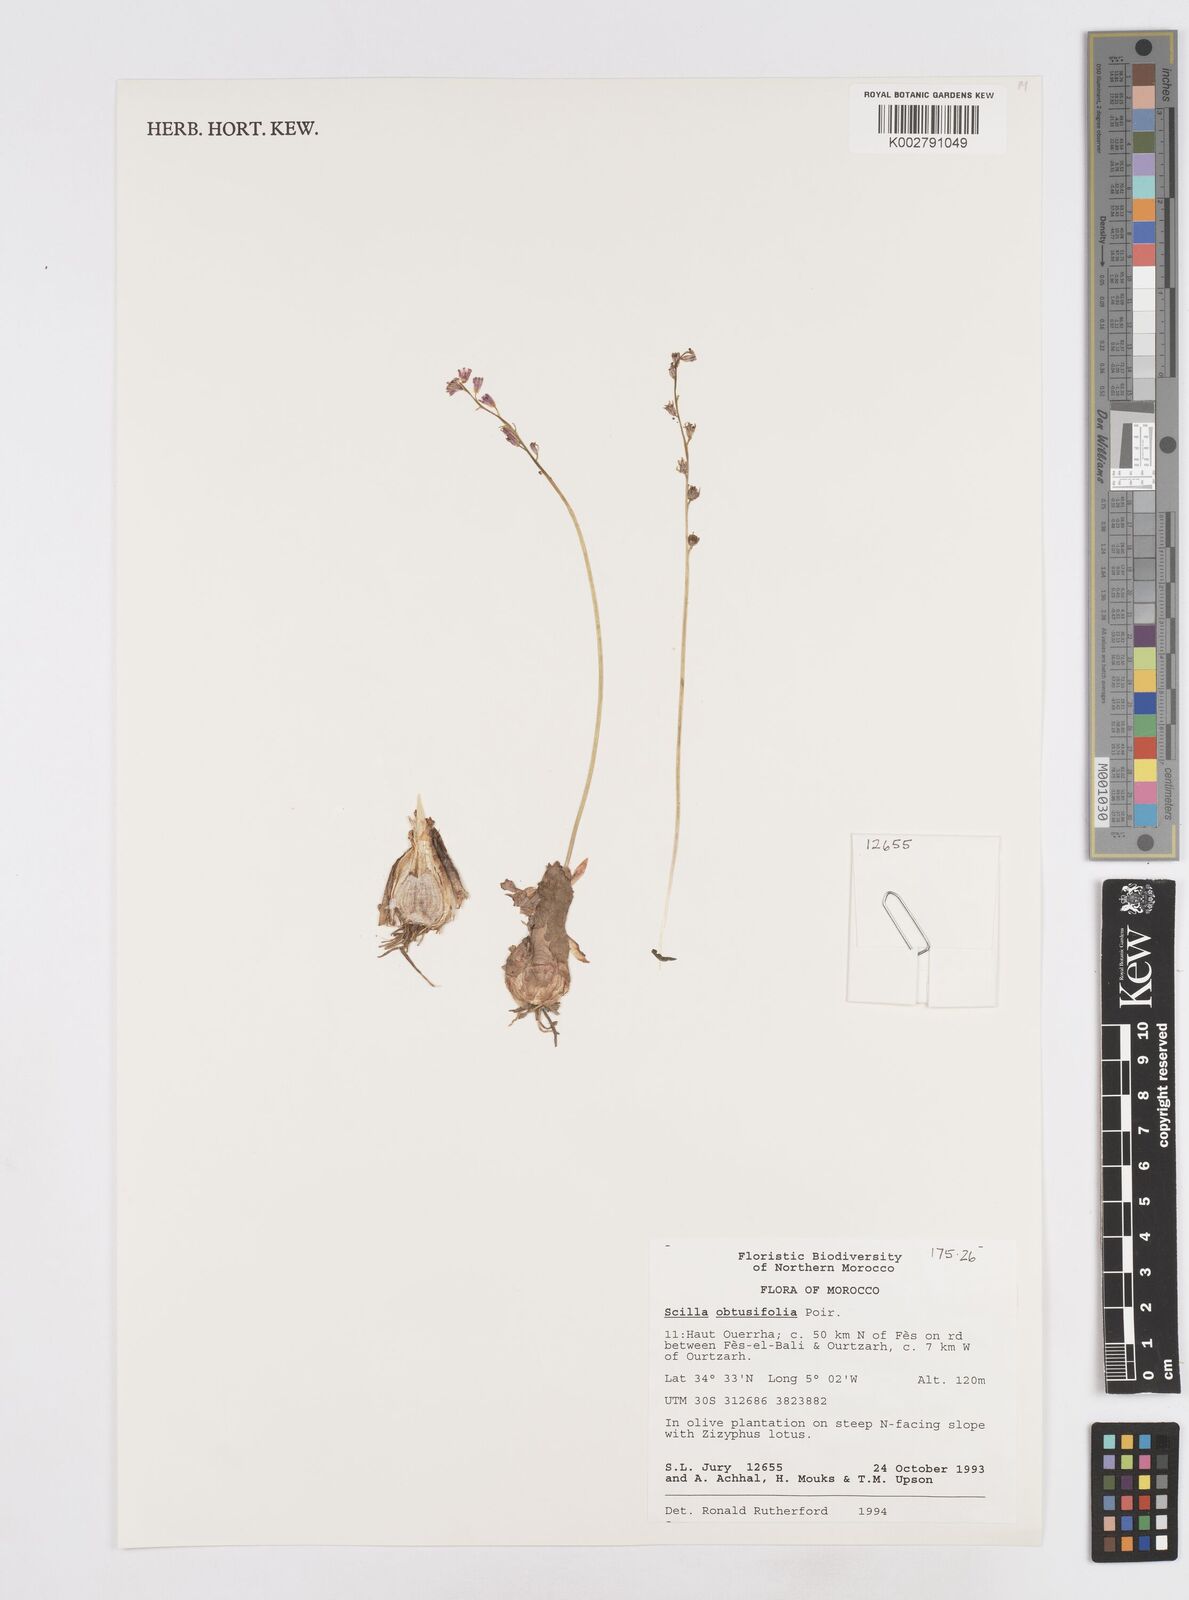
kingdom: Plantae
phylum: Tracheophyta
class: Liliopsida
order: Asparagales
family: Asparagaceae
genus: Prospero
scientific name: Prospero obtusifolium
